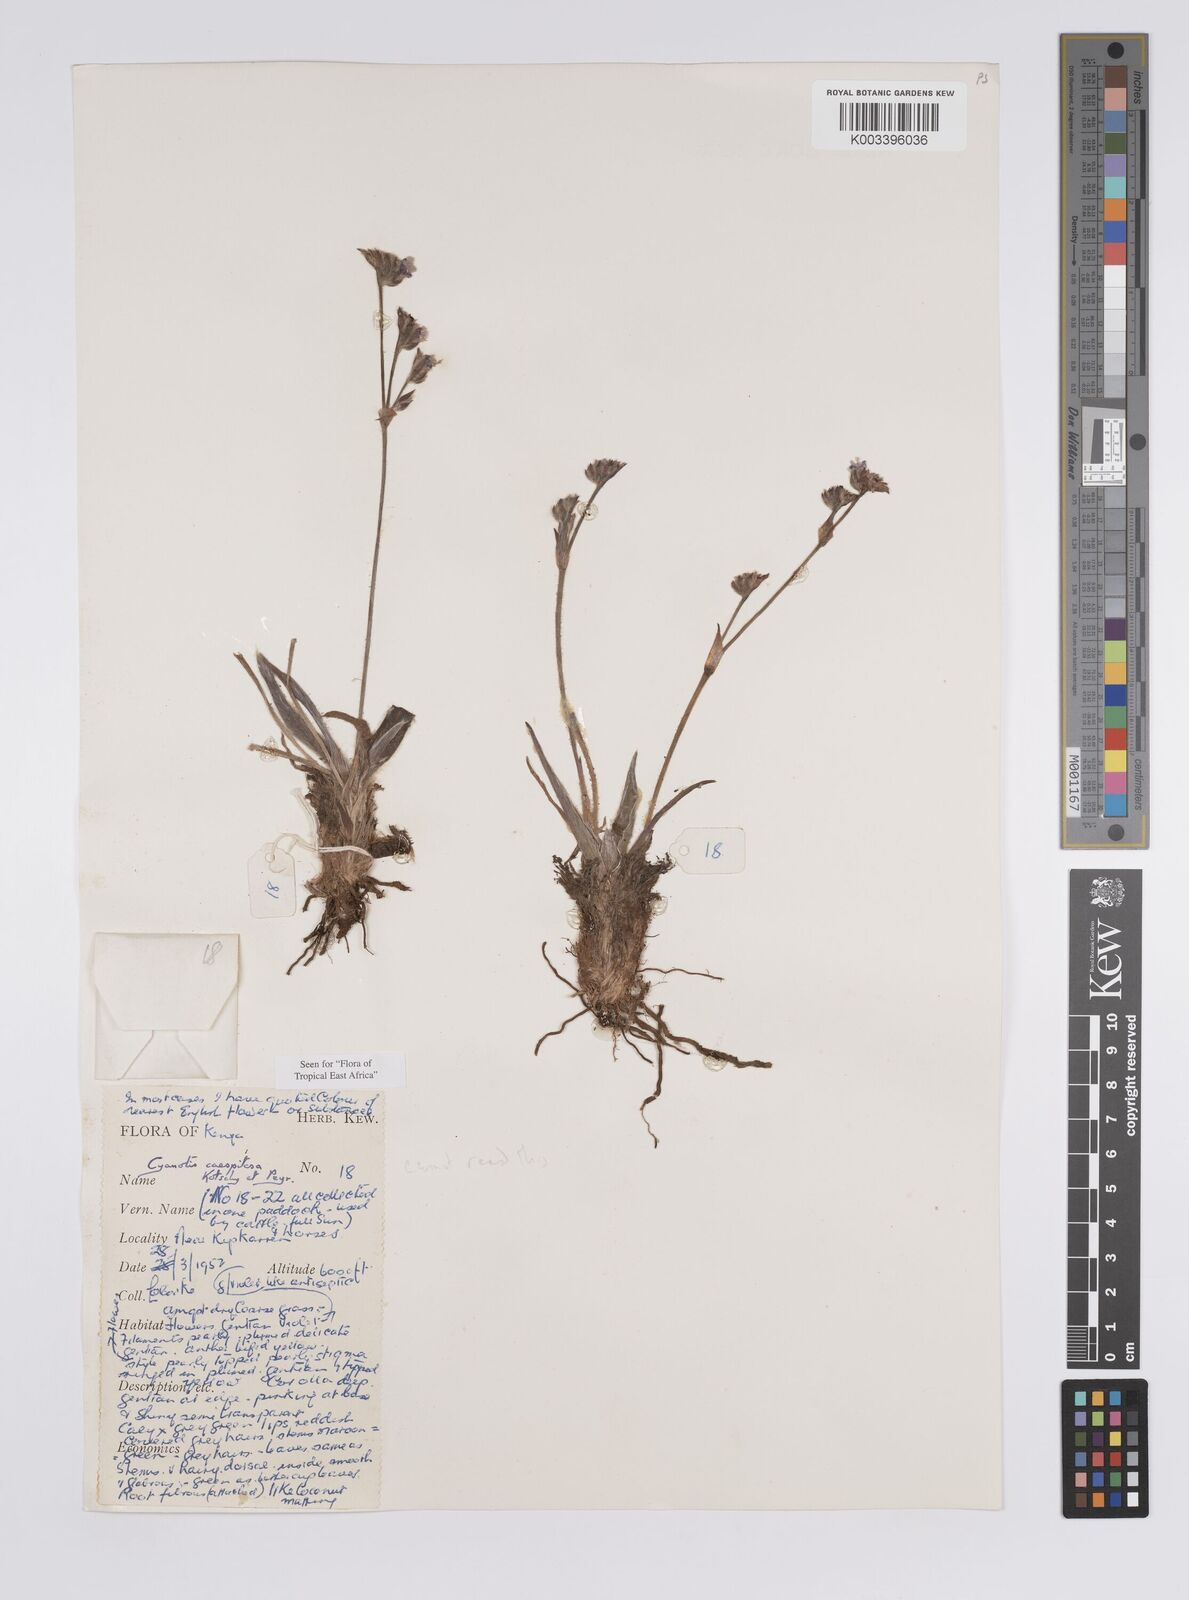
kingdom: Plantae
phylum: Tracheophyta
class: Liliopsida
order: Commelinales
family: Commelinaceae
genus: Cyanotis
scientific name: Cyanotis caespitosa
